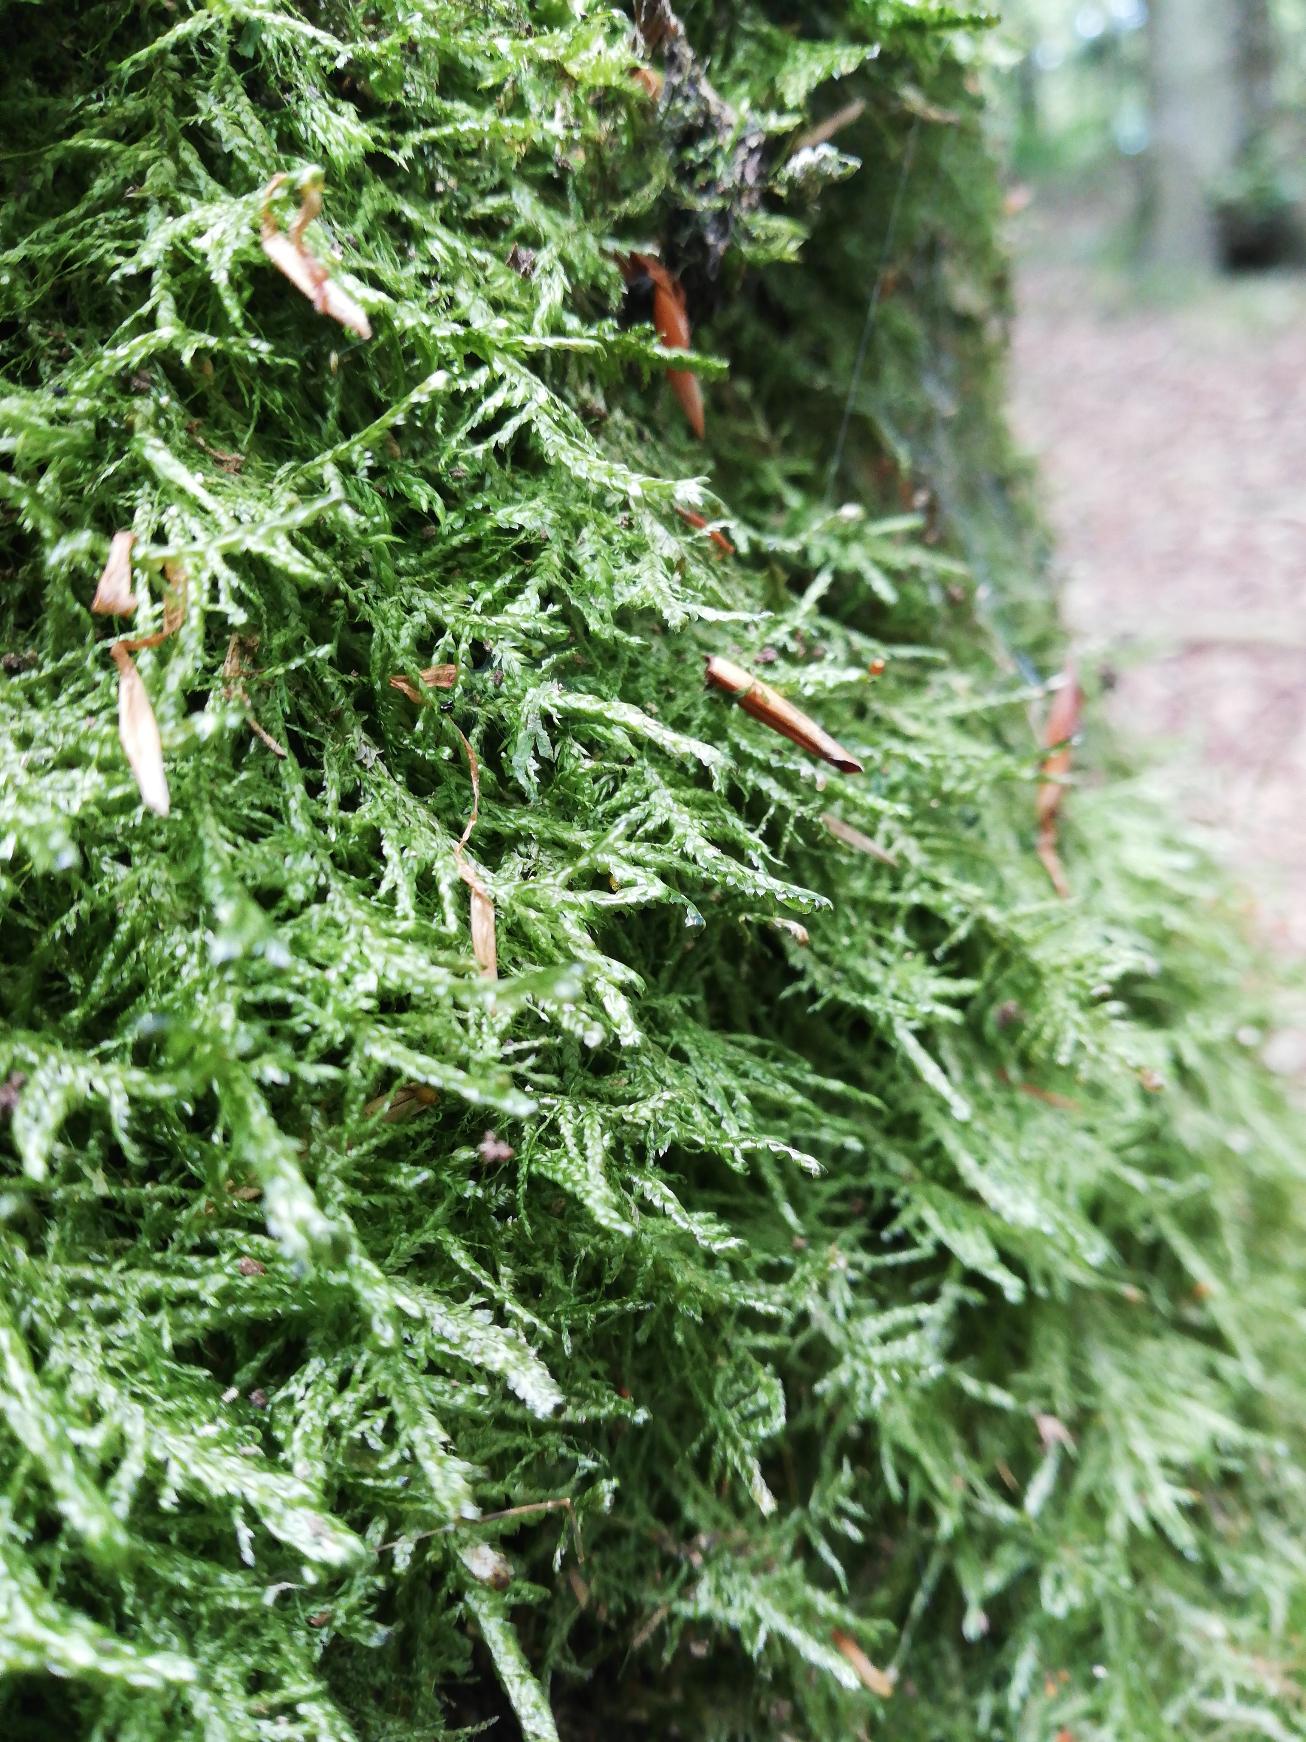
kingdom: Plantae
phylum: Bryophyta
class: Bryopsida
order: Hypnales
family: Neckeraceae
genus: Alleniella
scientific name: Alleniella complanata
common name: Almindelig fladmos
